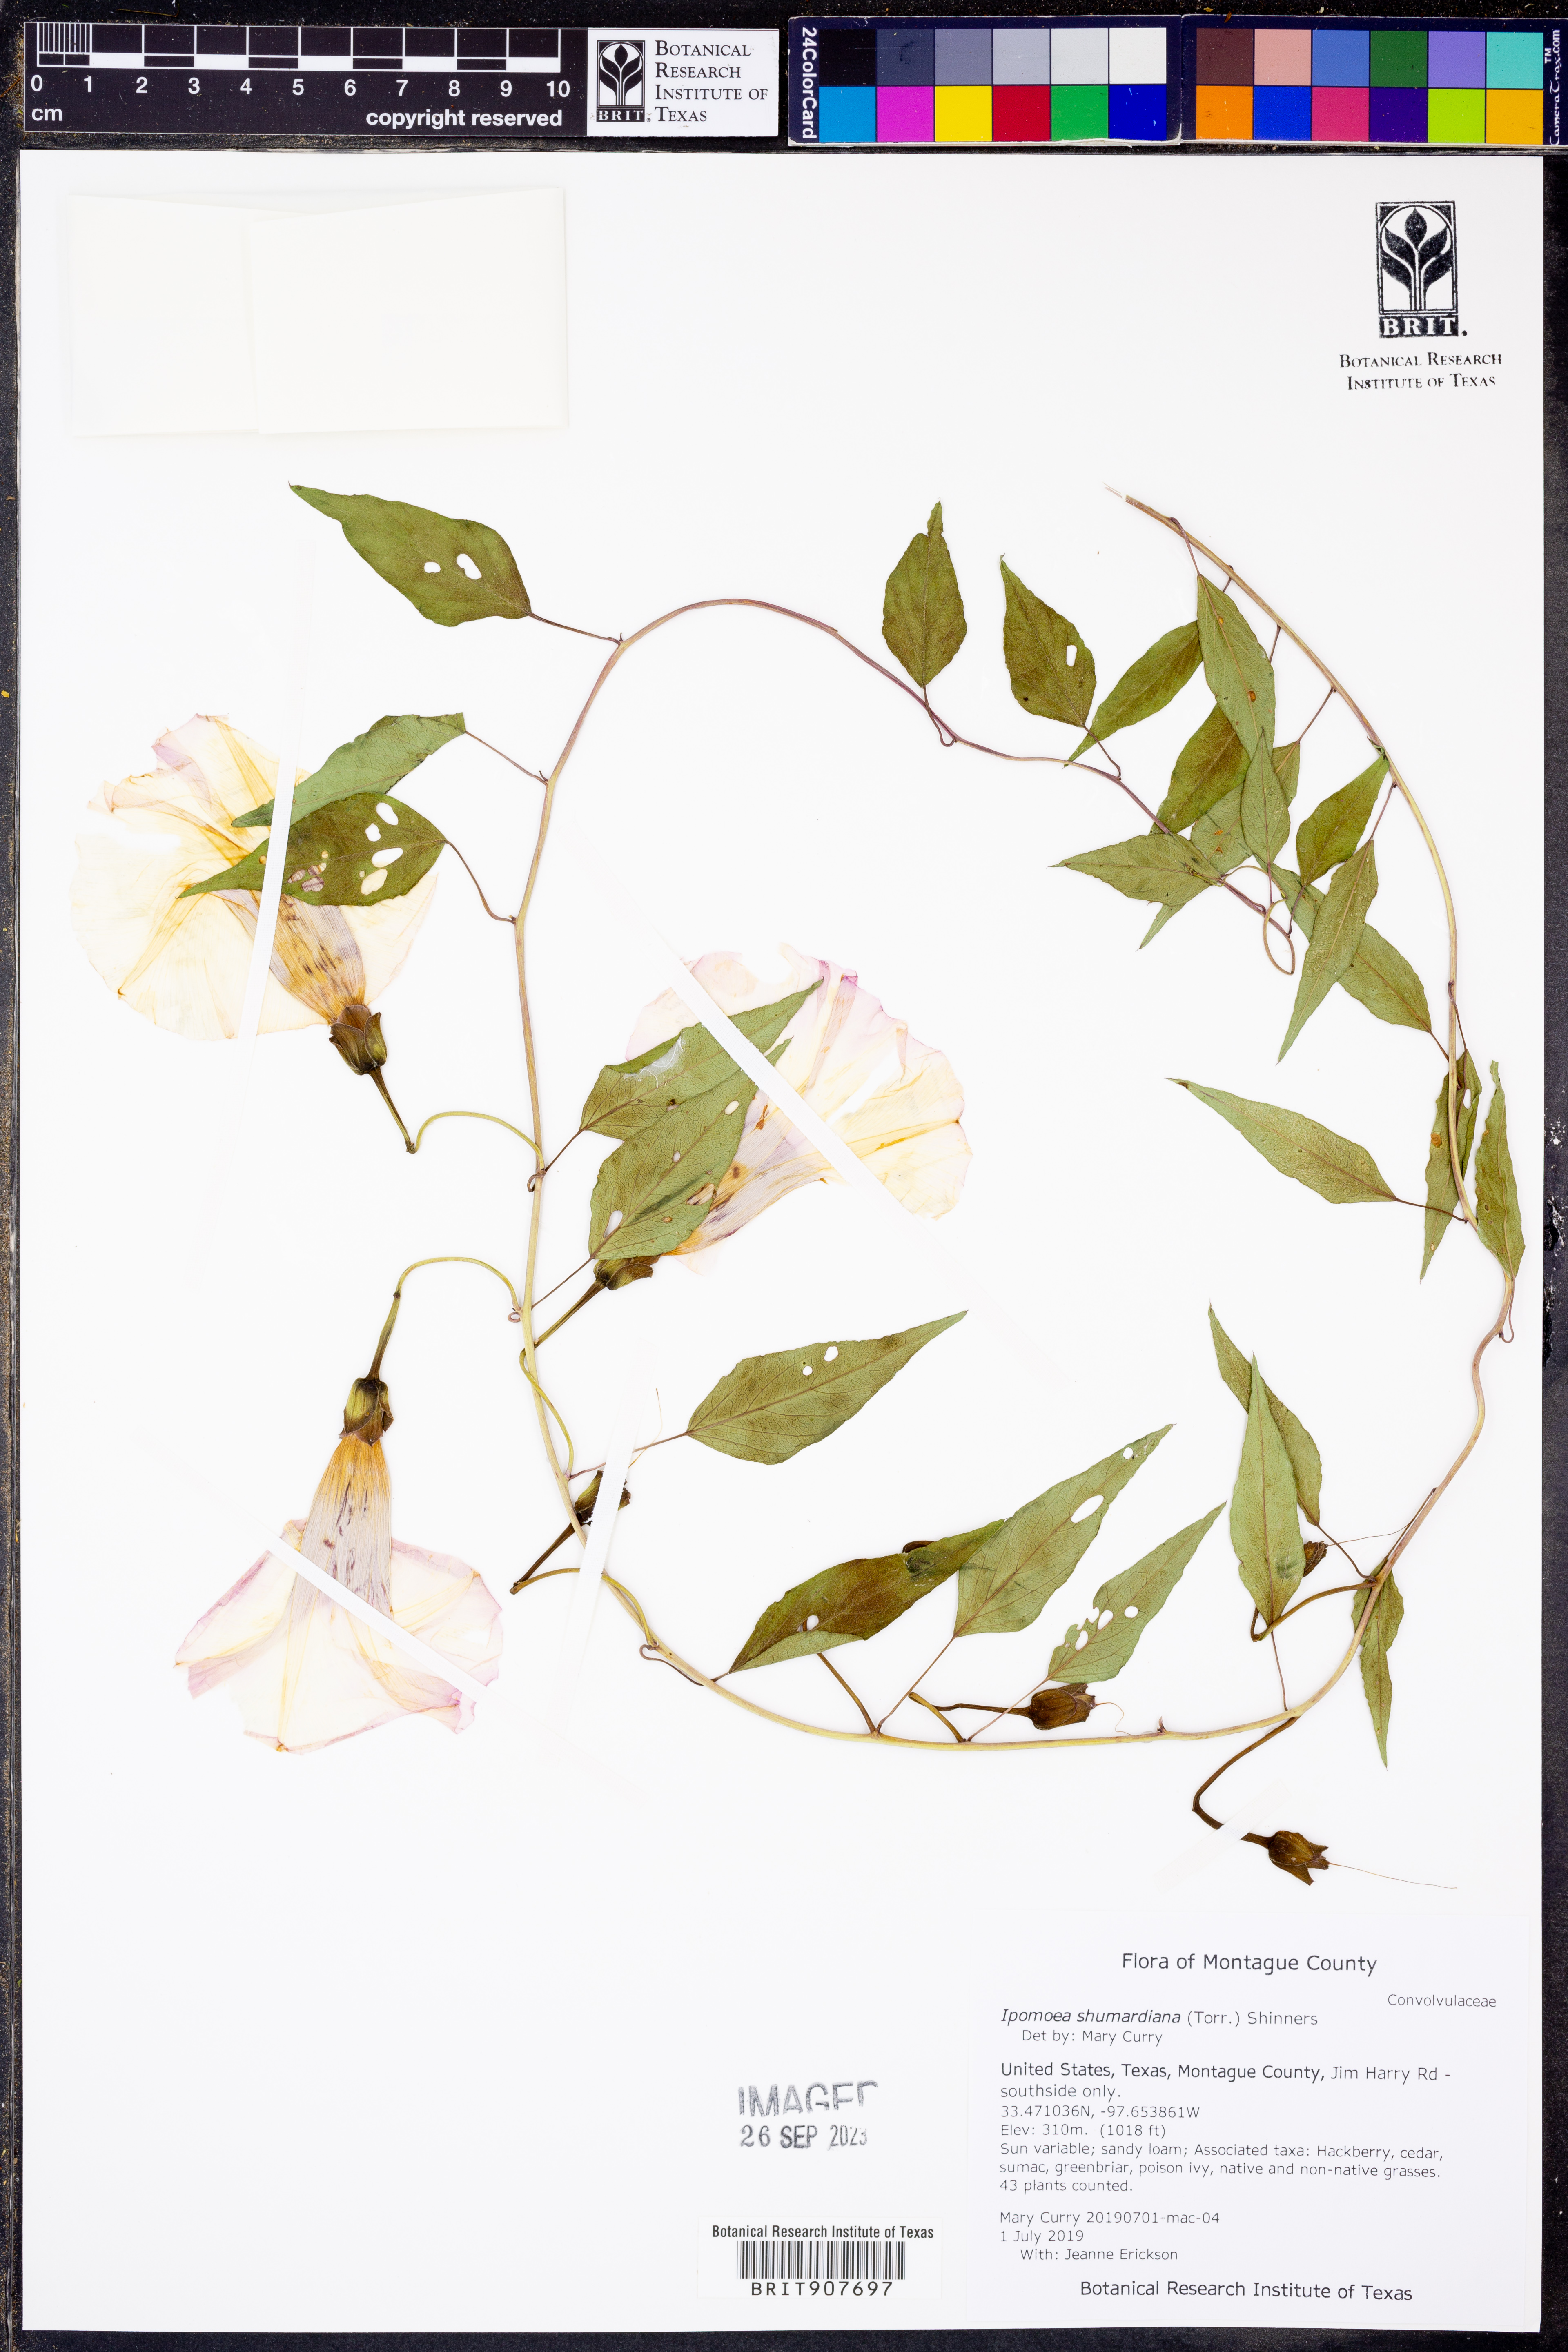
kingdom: Plantae
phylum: Tracheophyta
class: Magnoliopsida
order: Solanales
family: Convolvulaceae
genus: Ipomoea
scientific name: Ipomoea shumardiana
